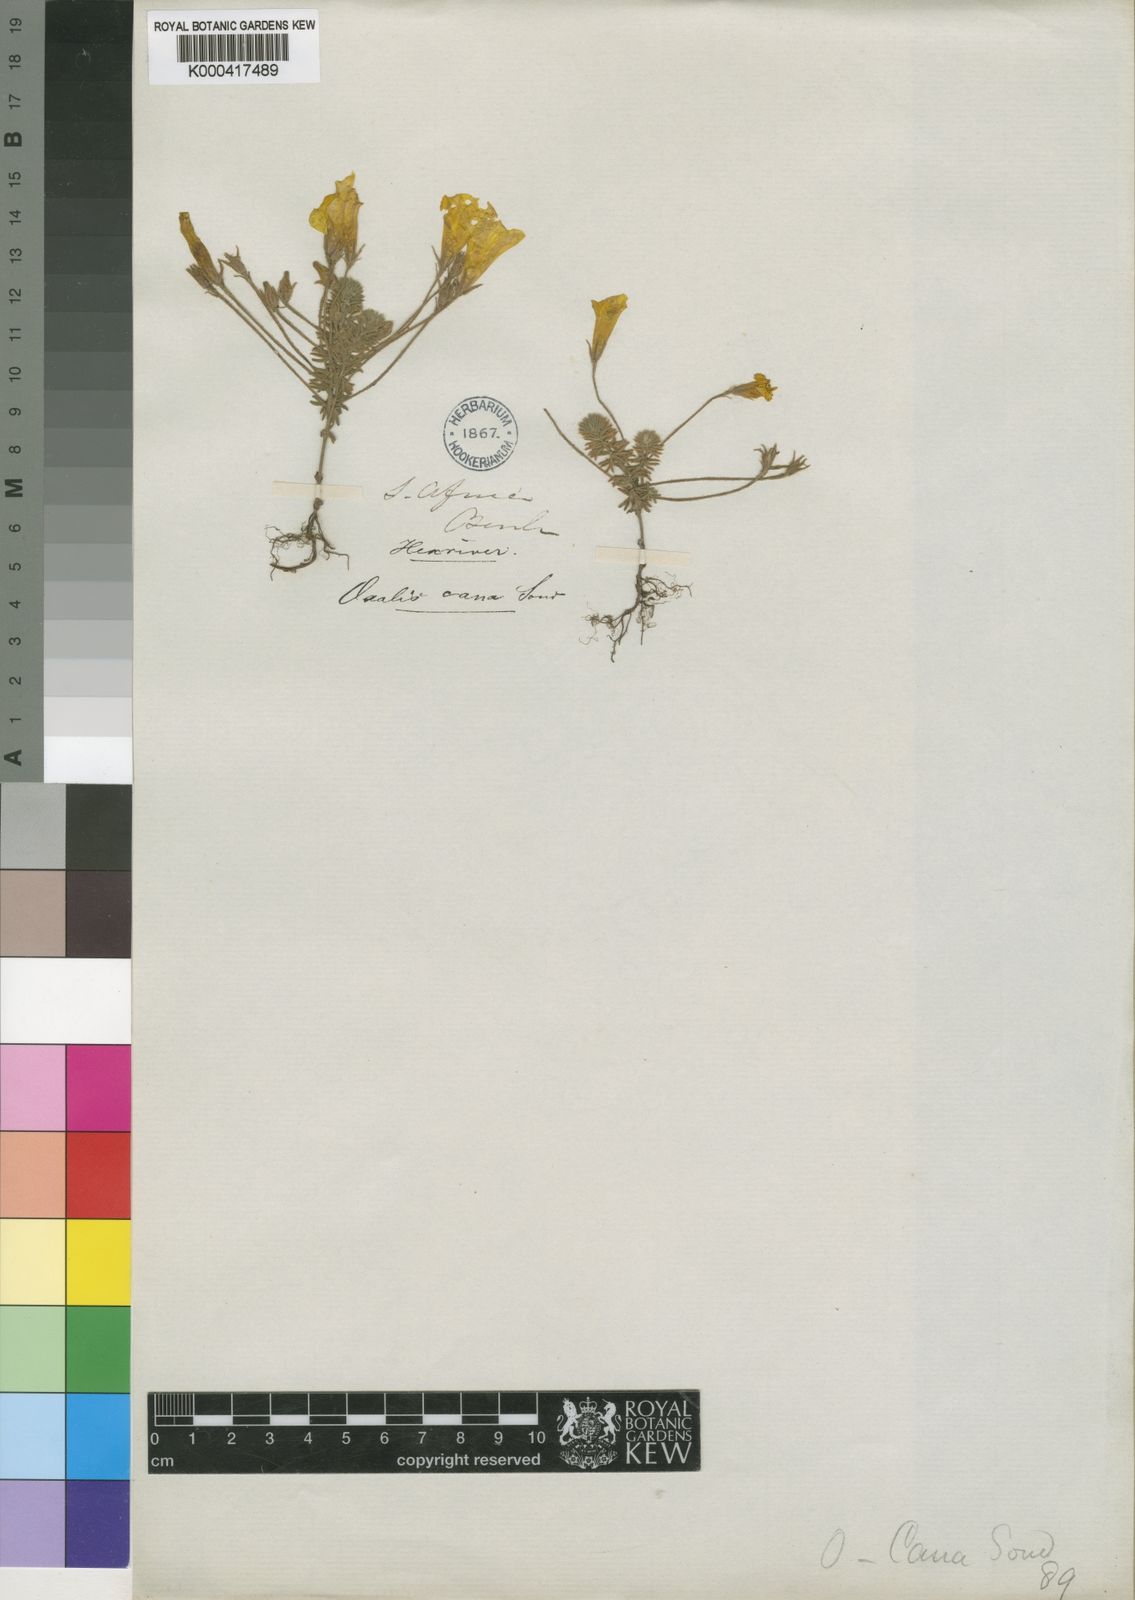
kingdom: Plantae
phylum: Tracheophyta
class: Magnoliopsida
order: Oxalidales
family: Oxalidaceae
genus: Oxalis
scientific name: Oxalis meisneri
